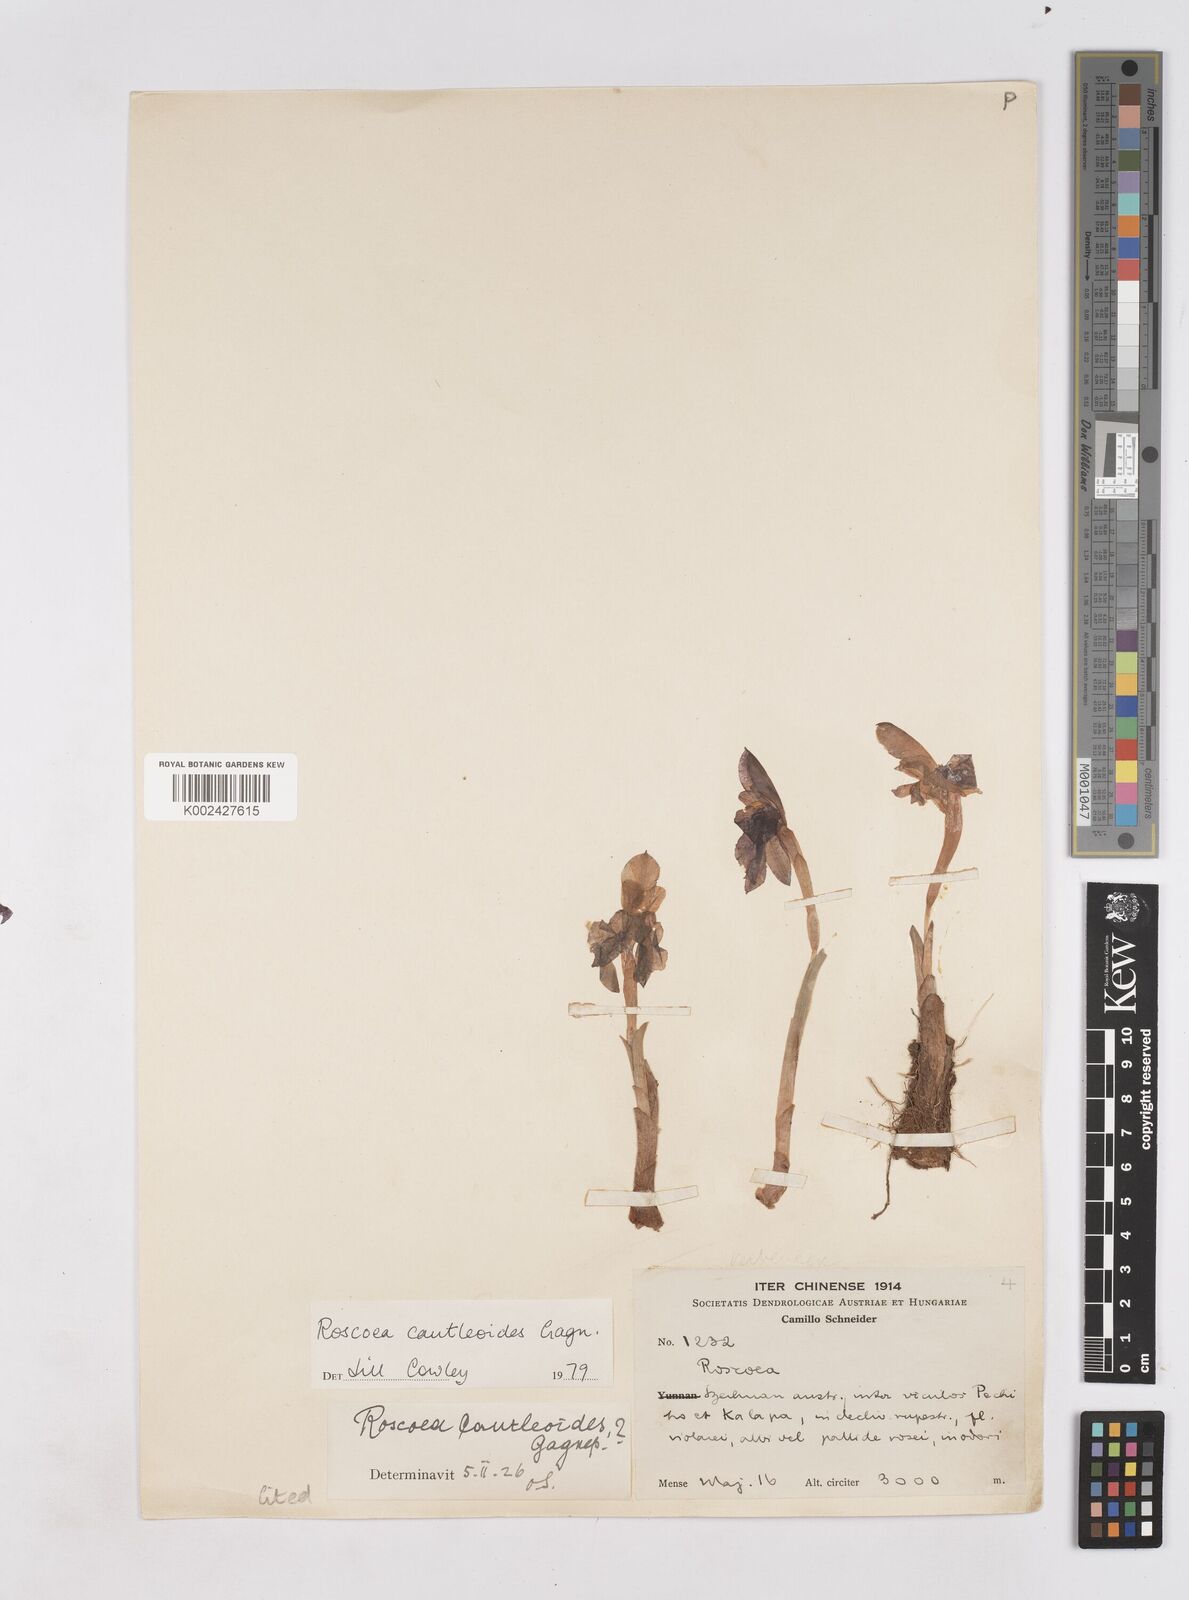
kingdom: Plantae
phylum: Tracheophyta
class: Liliopsida
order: Zingiberales
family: Zingiberaceae
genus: Roscoea
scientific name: Roscoea cautleyoides
